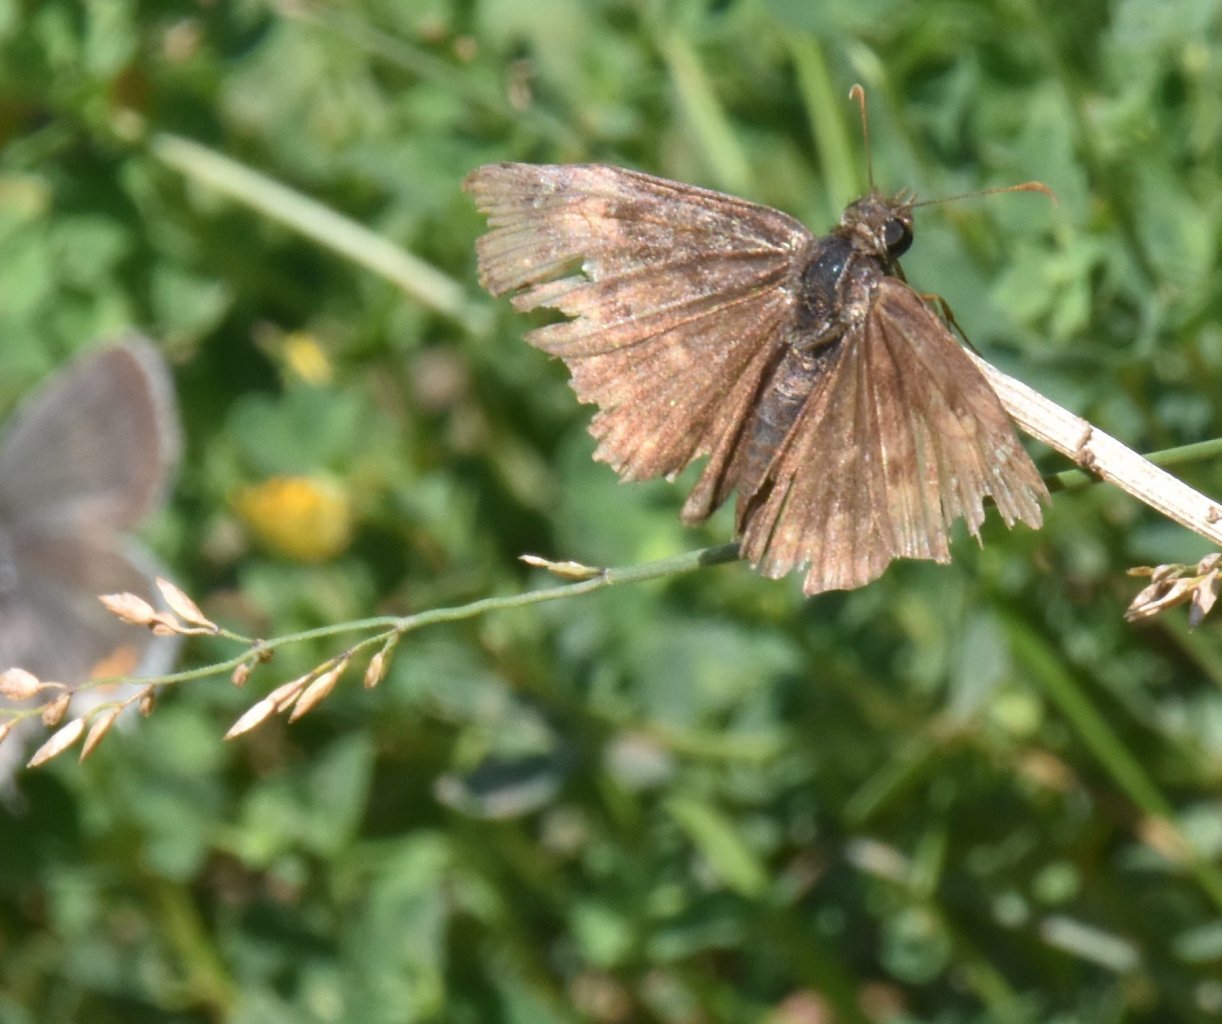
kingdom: Animalia
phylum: Arthropoda
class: Insecta
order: Lepidoptera
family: Hesperiidae
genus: Gesta
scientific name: Gesta
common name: Wild Indigo Duskywing
